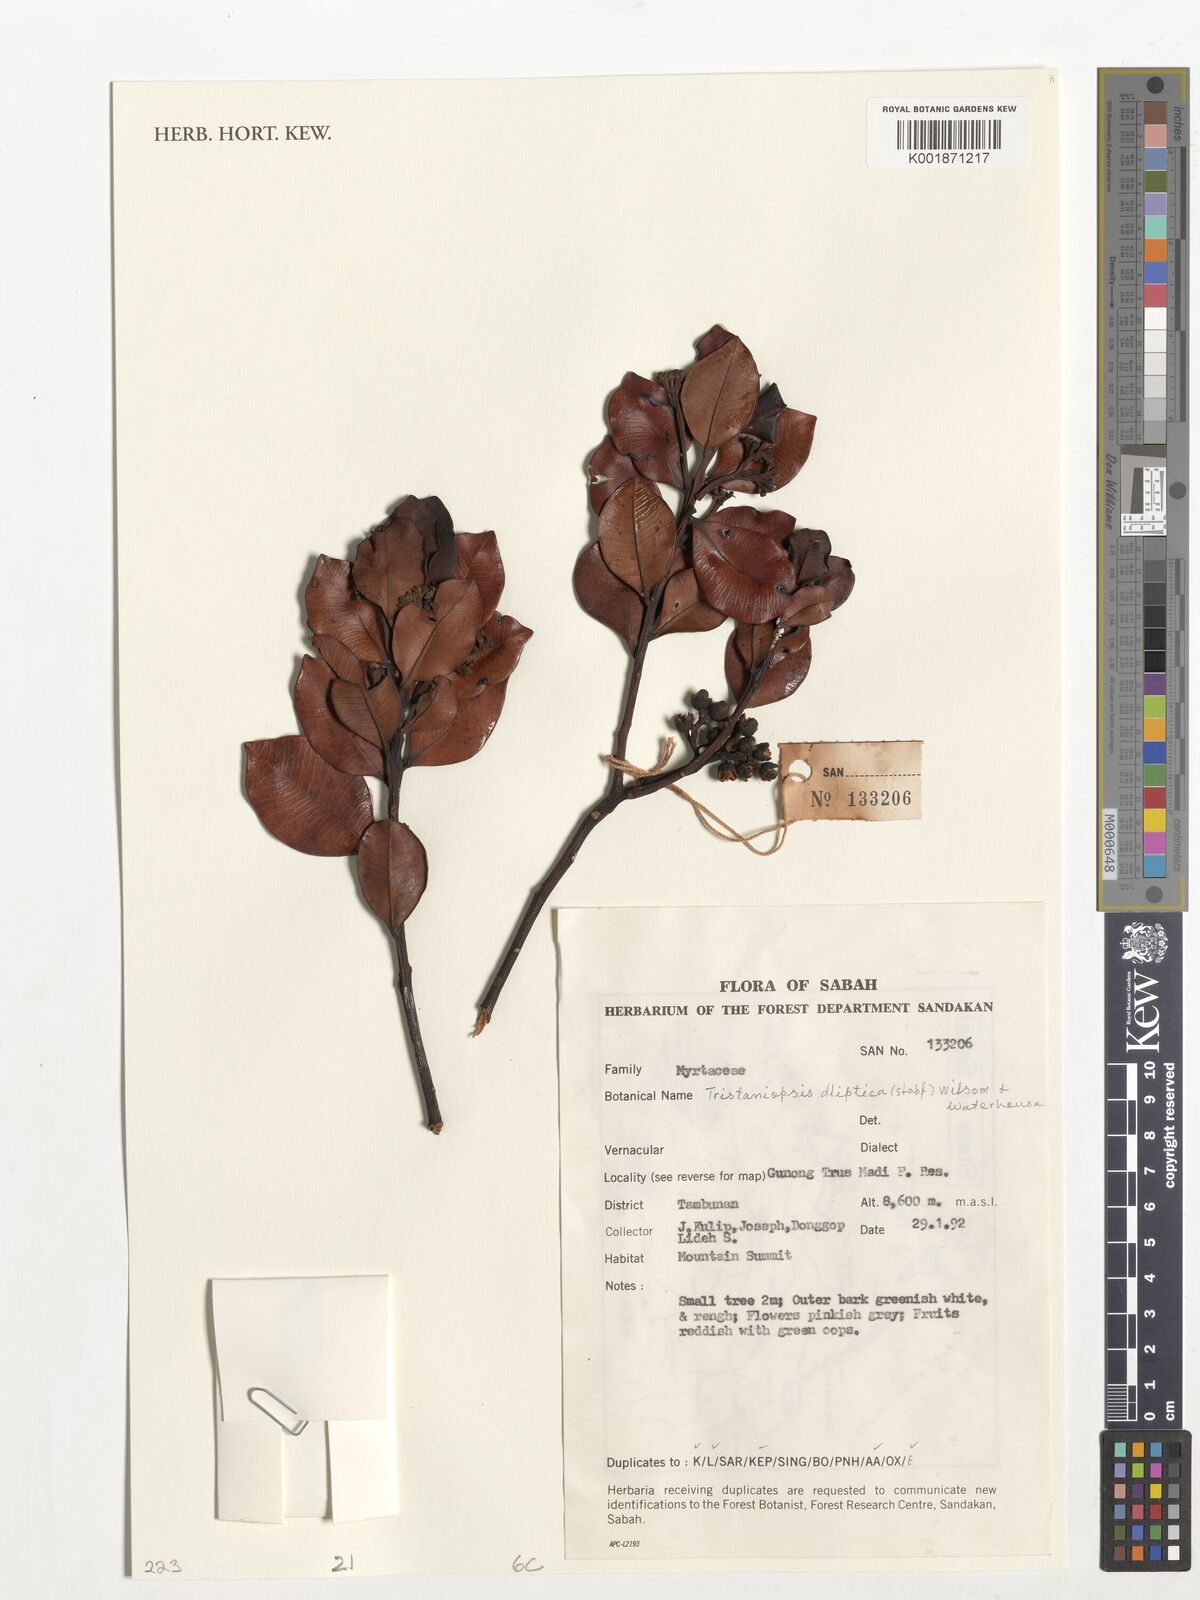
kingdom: Plantae
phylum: Tracheophyta
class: Magnoliopsida
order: Myrtales
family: Myrtaceae
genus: Tristaniopsis
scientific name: Tristaniopsis elliptica
